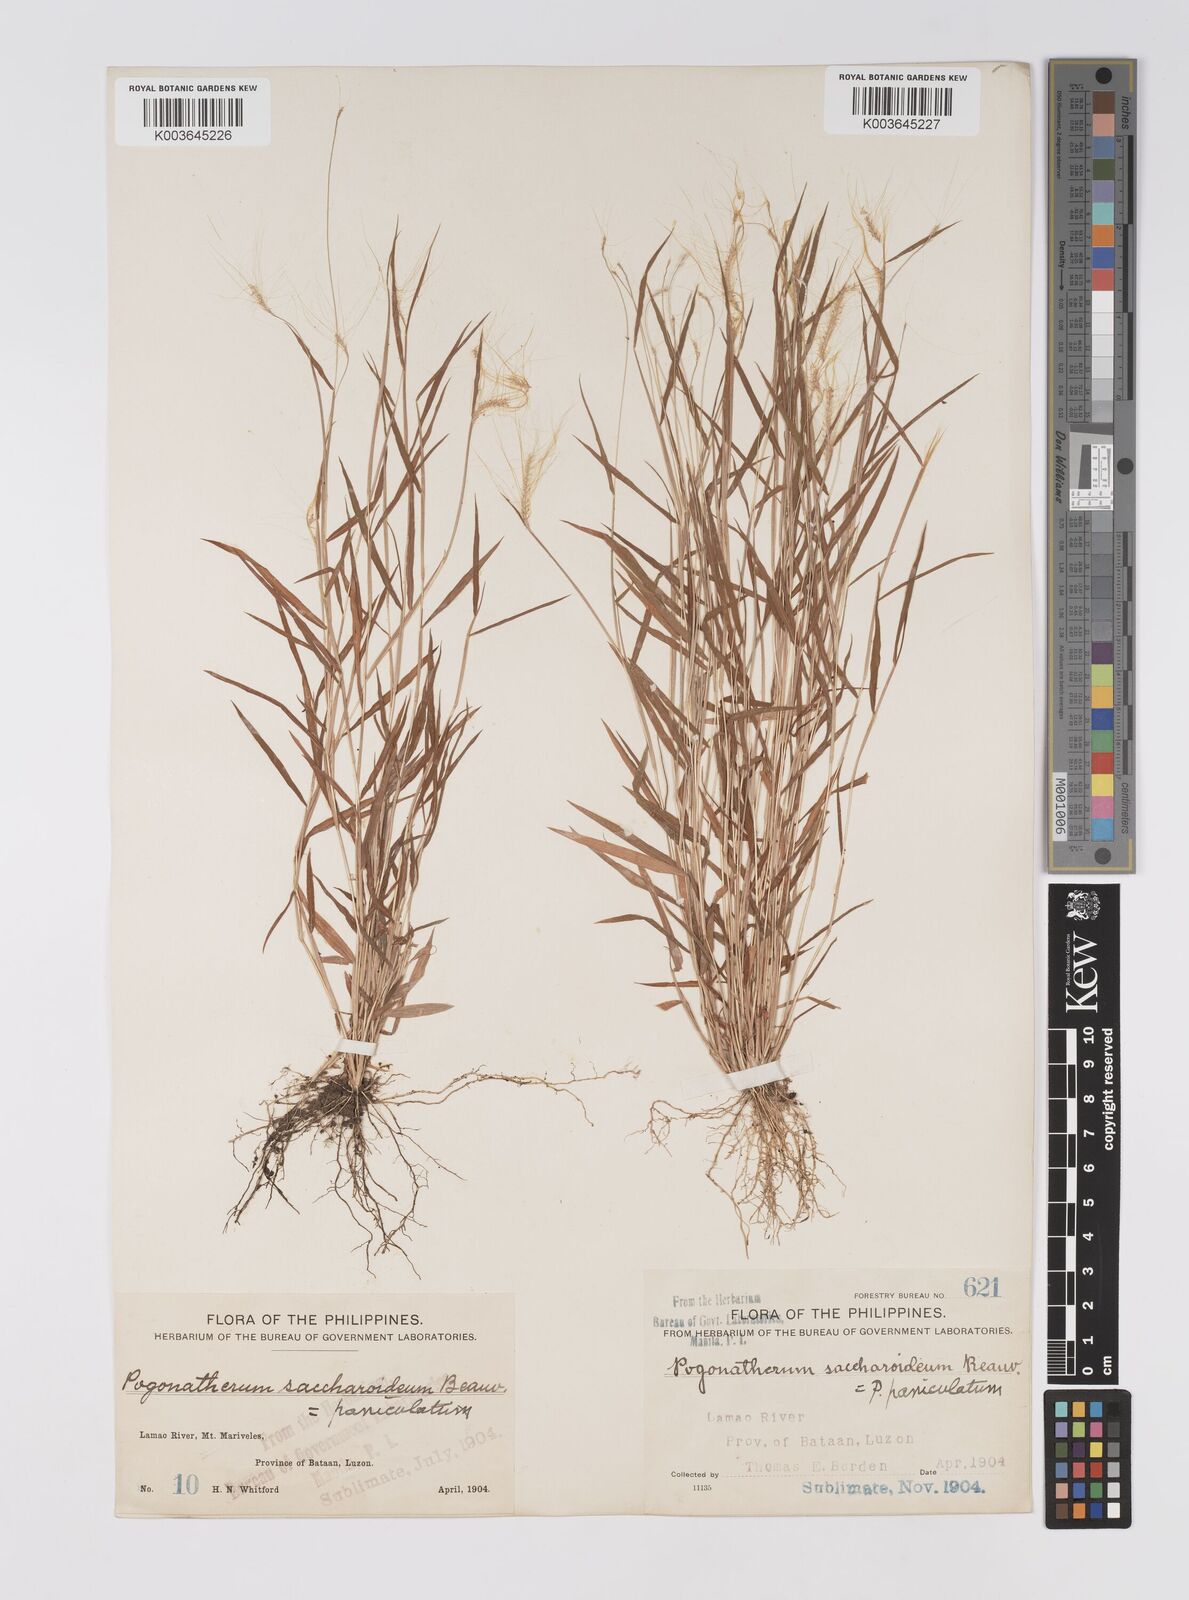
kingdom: Plantae
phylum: Tracheophyta
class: Liliopsida
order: Poales
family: Poaceae
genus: Pogonatherum
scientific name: Pogonatherum crinitum
